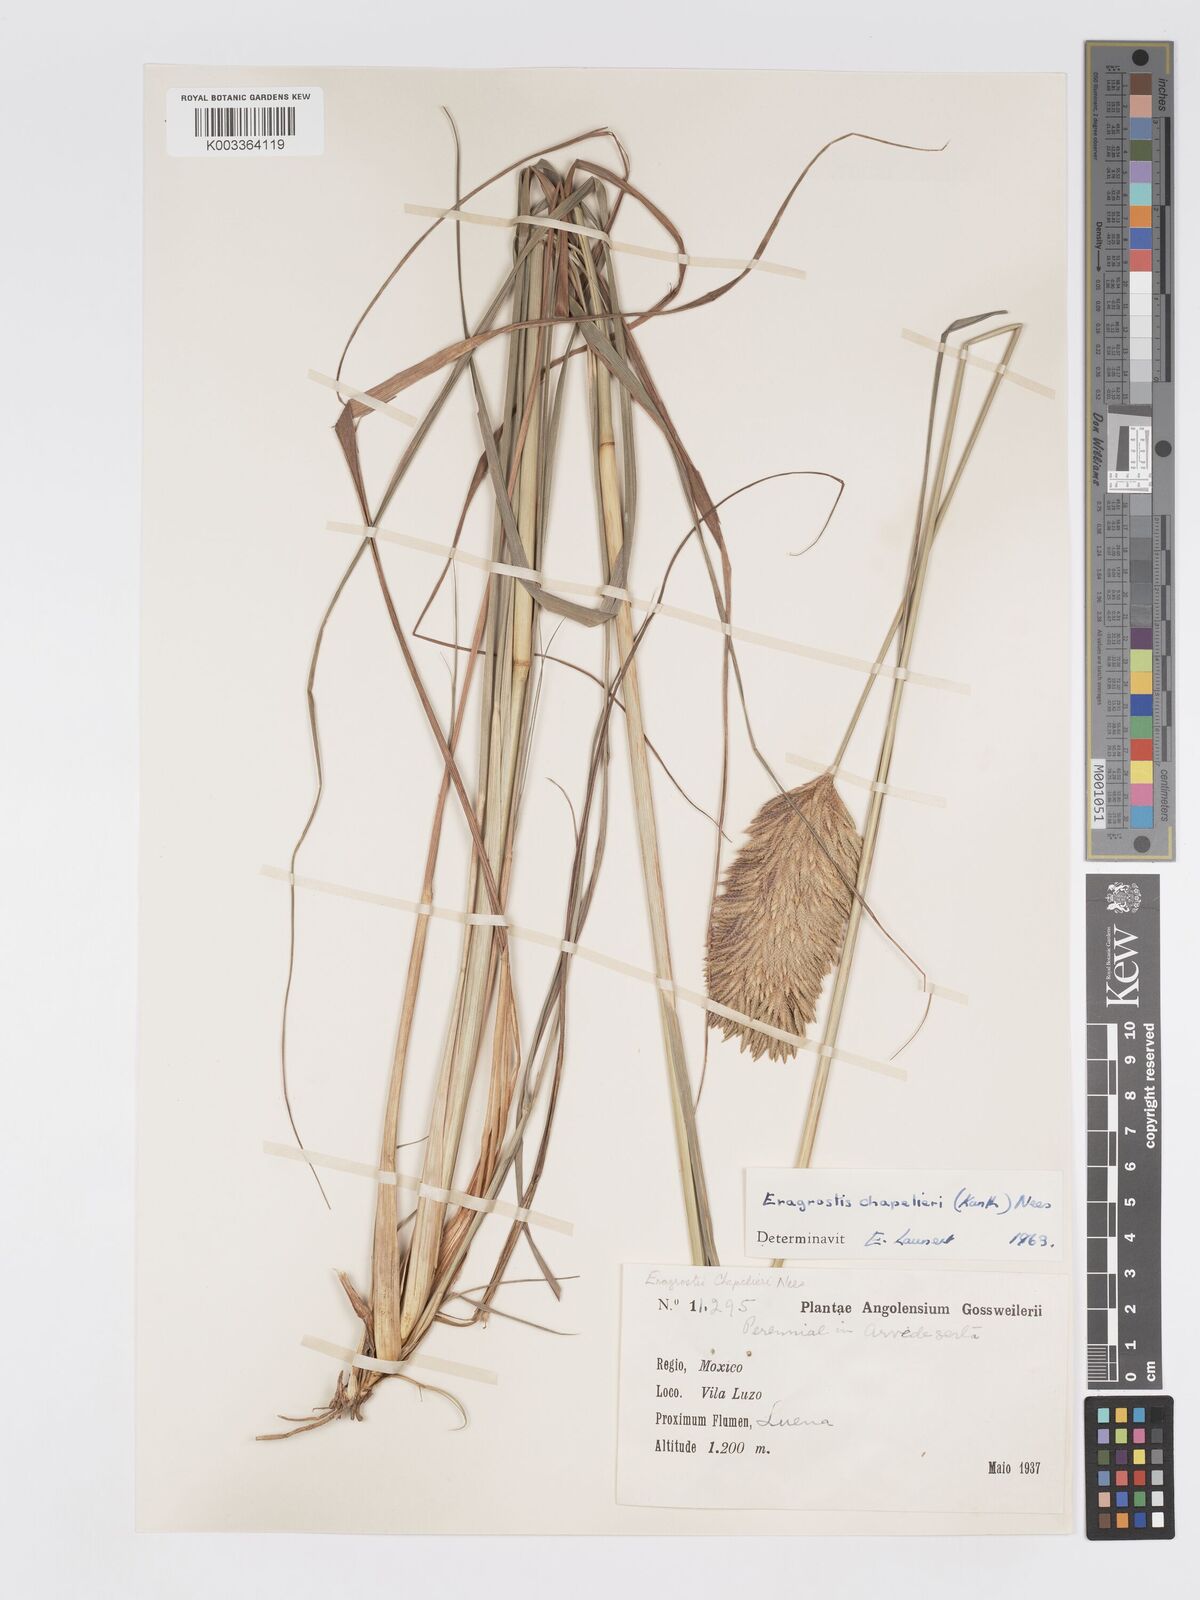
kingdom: Plantae
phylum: Tracheophyta
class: Liliopsida
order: Poales
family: Poaceae
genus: Eragrostis
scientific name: Eragrostis chapelieri
